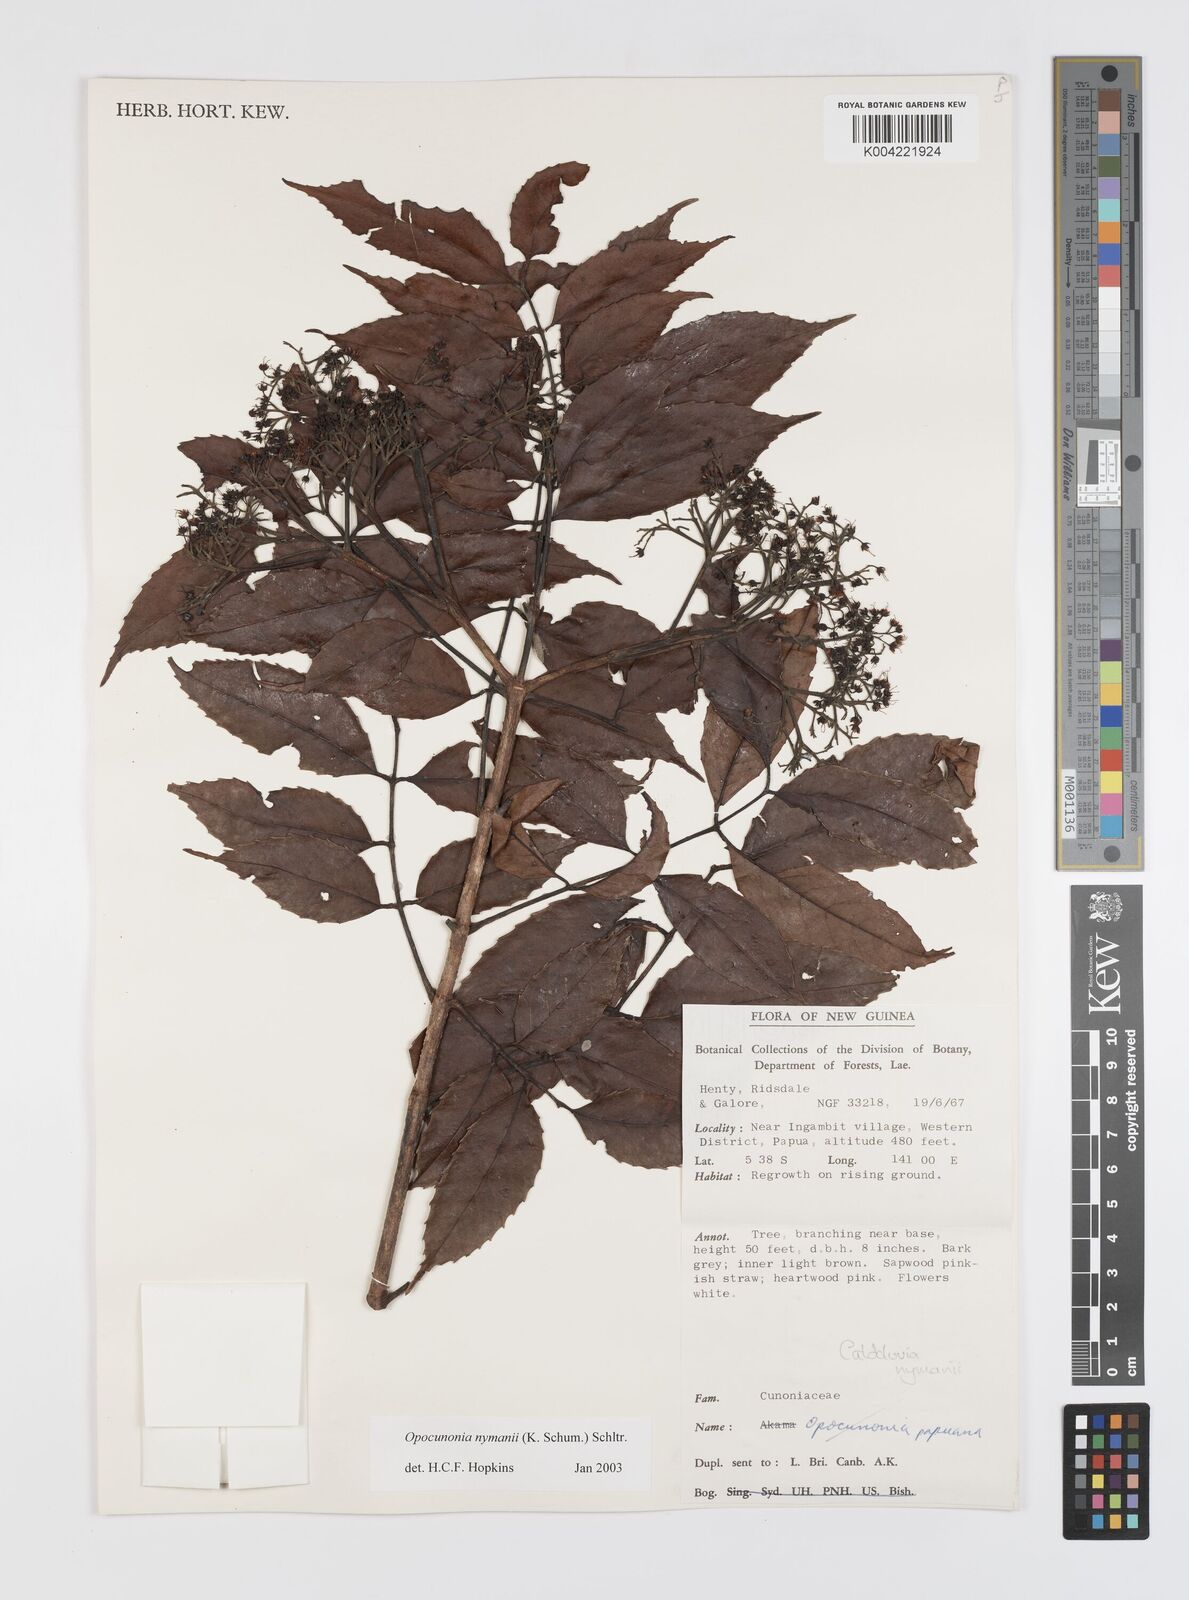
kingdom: Plantae
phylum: Tracheophyta
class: Magnoliopsida
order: Oxalidales
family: Cunoniaceae
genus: Opocunonia
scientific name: Opocunonia nymanii
